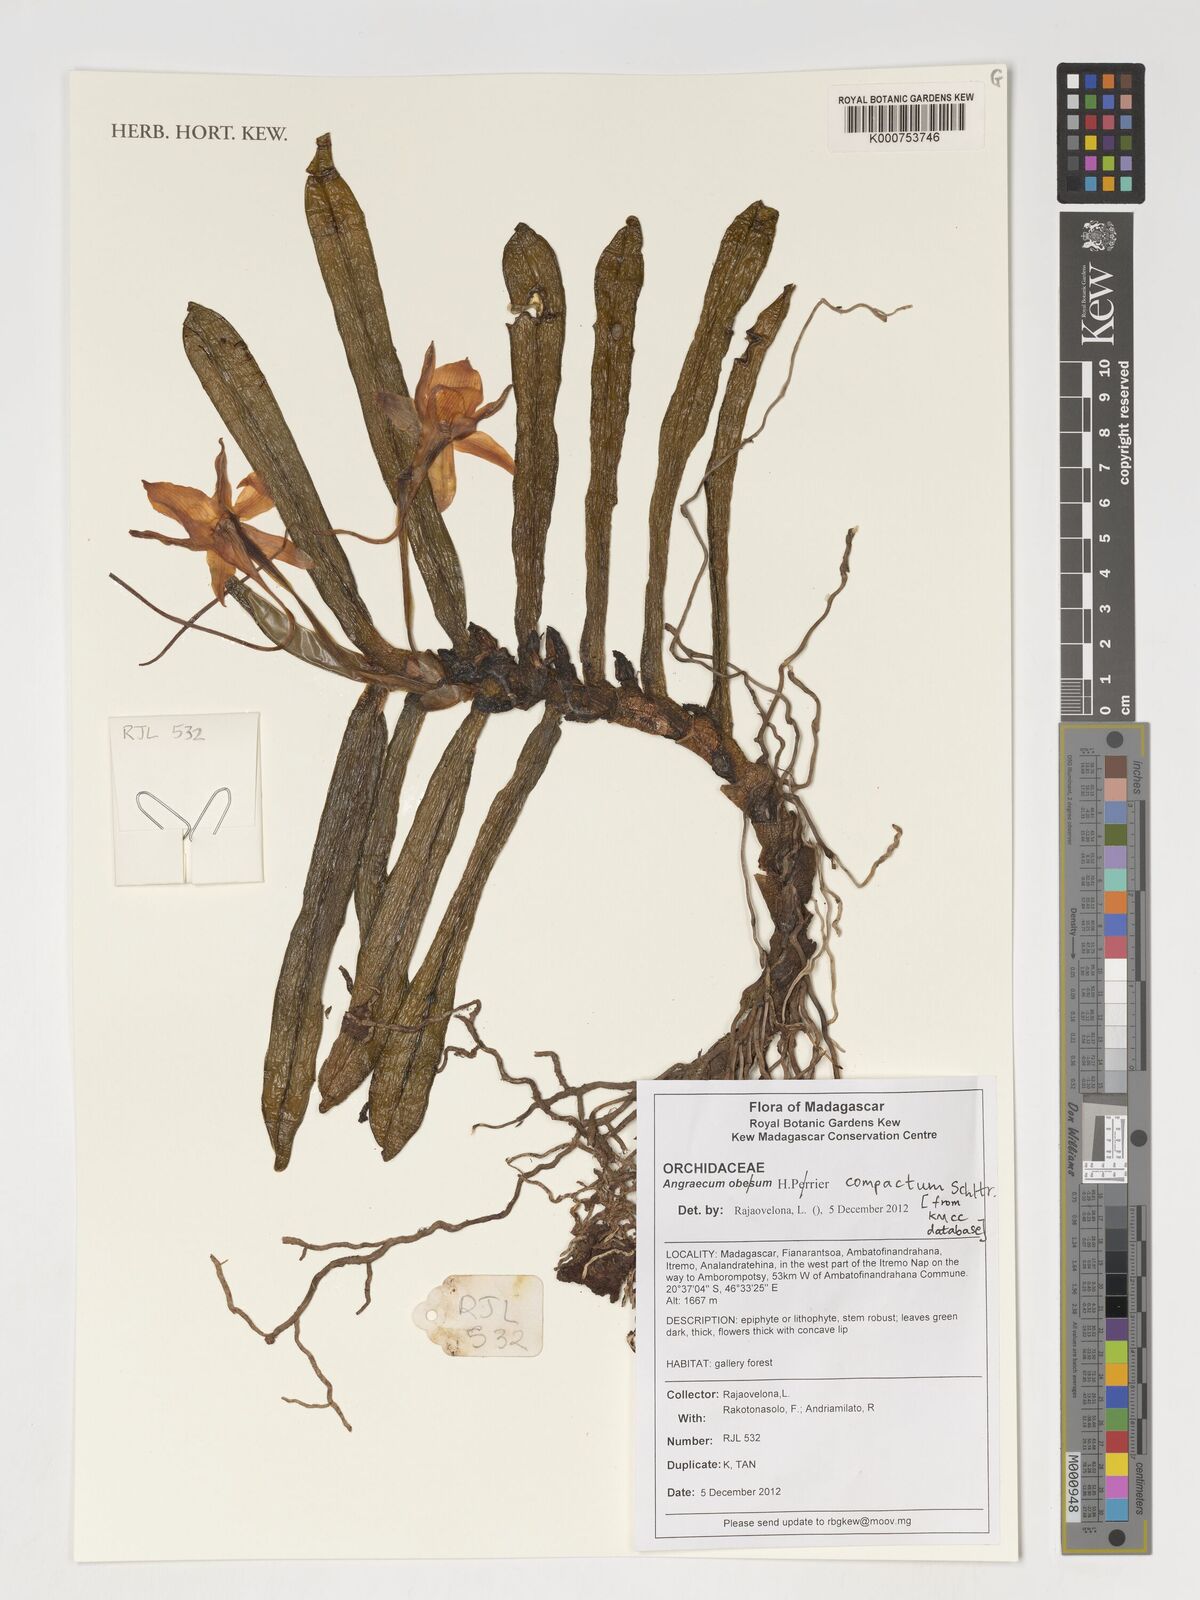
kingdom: Plantae
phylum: Tracheophyta
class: Liliopsida
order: Asparagales
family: Orchidaceae
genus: Angraecum
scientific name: Angraecum compactum
